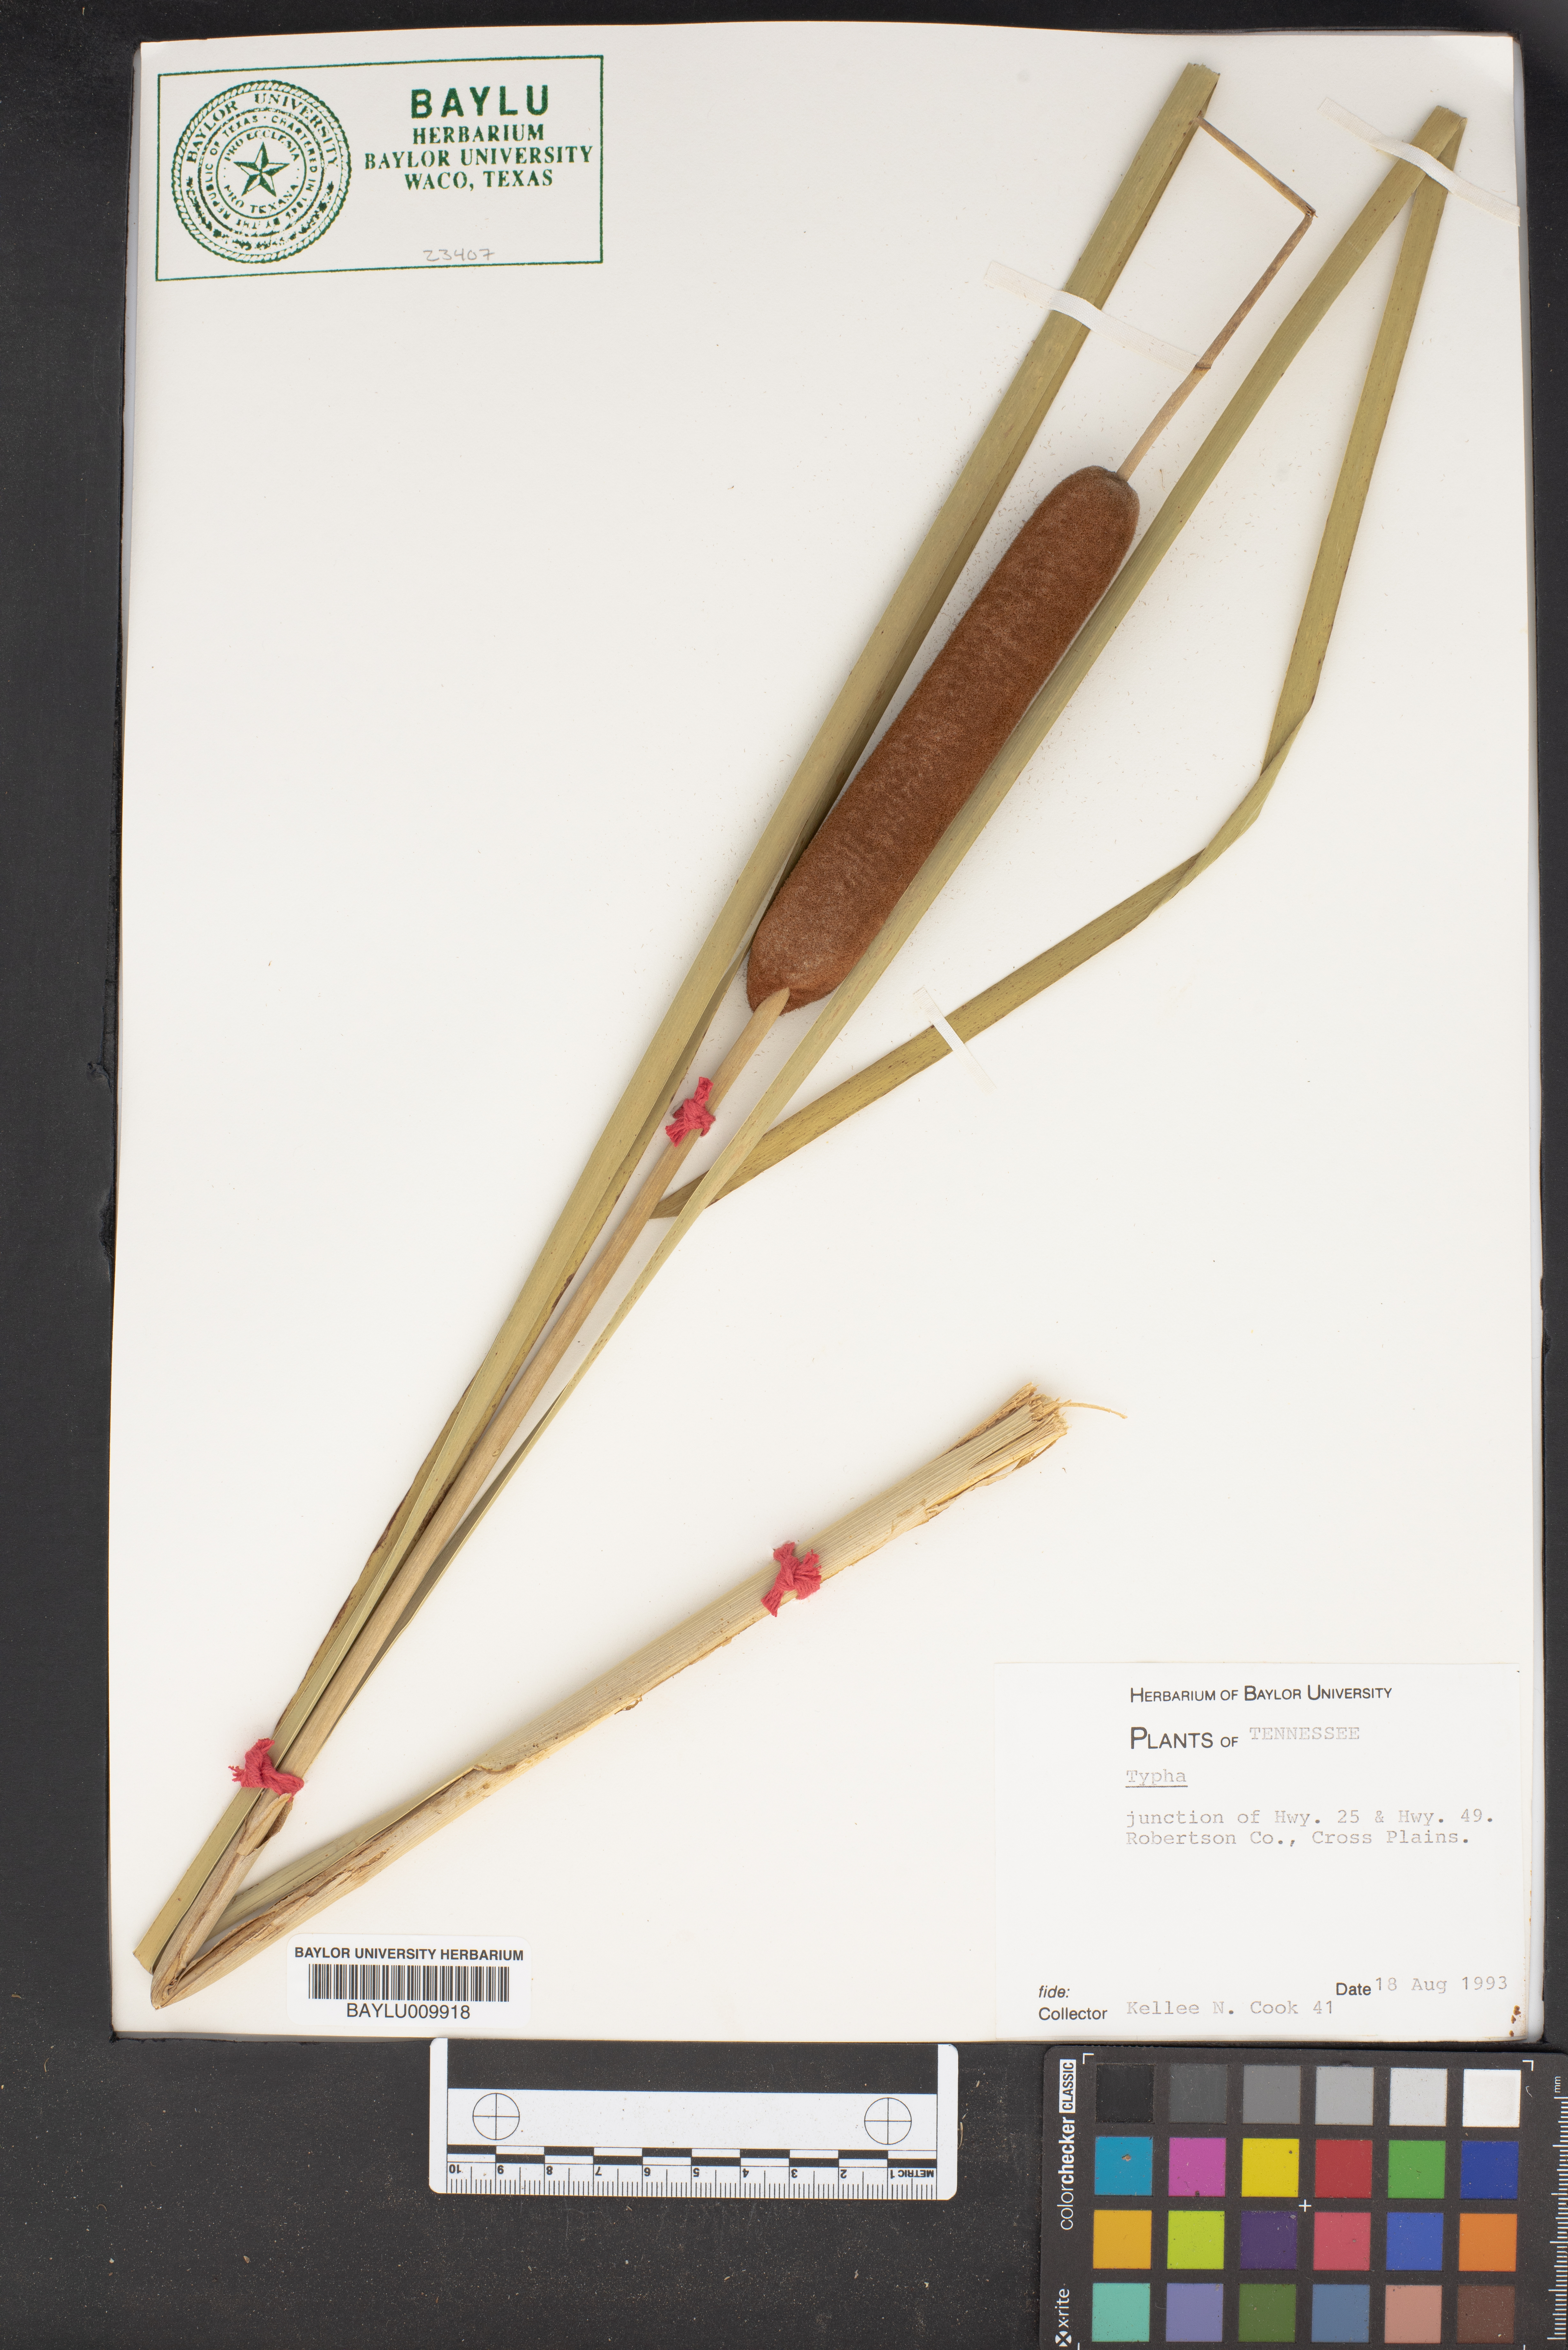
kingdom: Plantae
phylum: Tracheophyta
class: Liliopsida
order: Poales
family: Typhaceae
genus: Typha
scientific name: Typha
